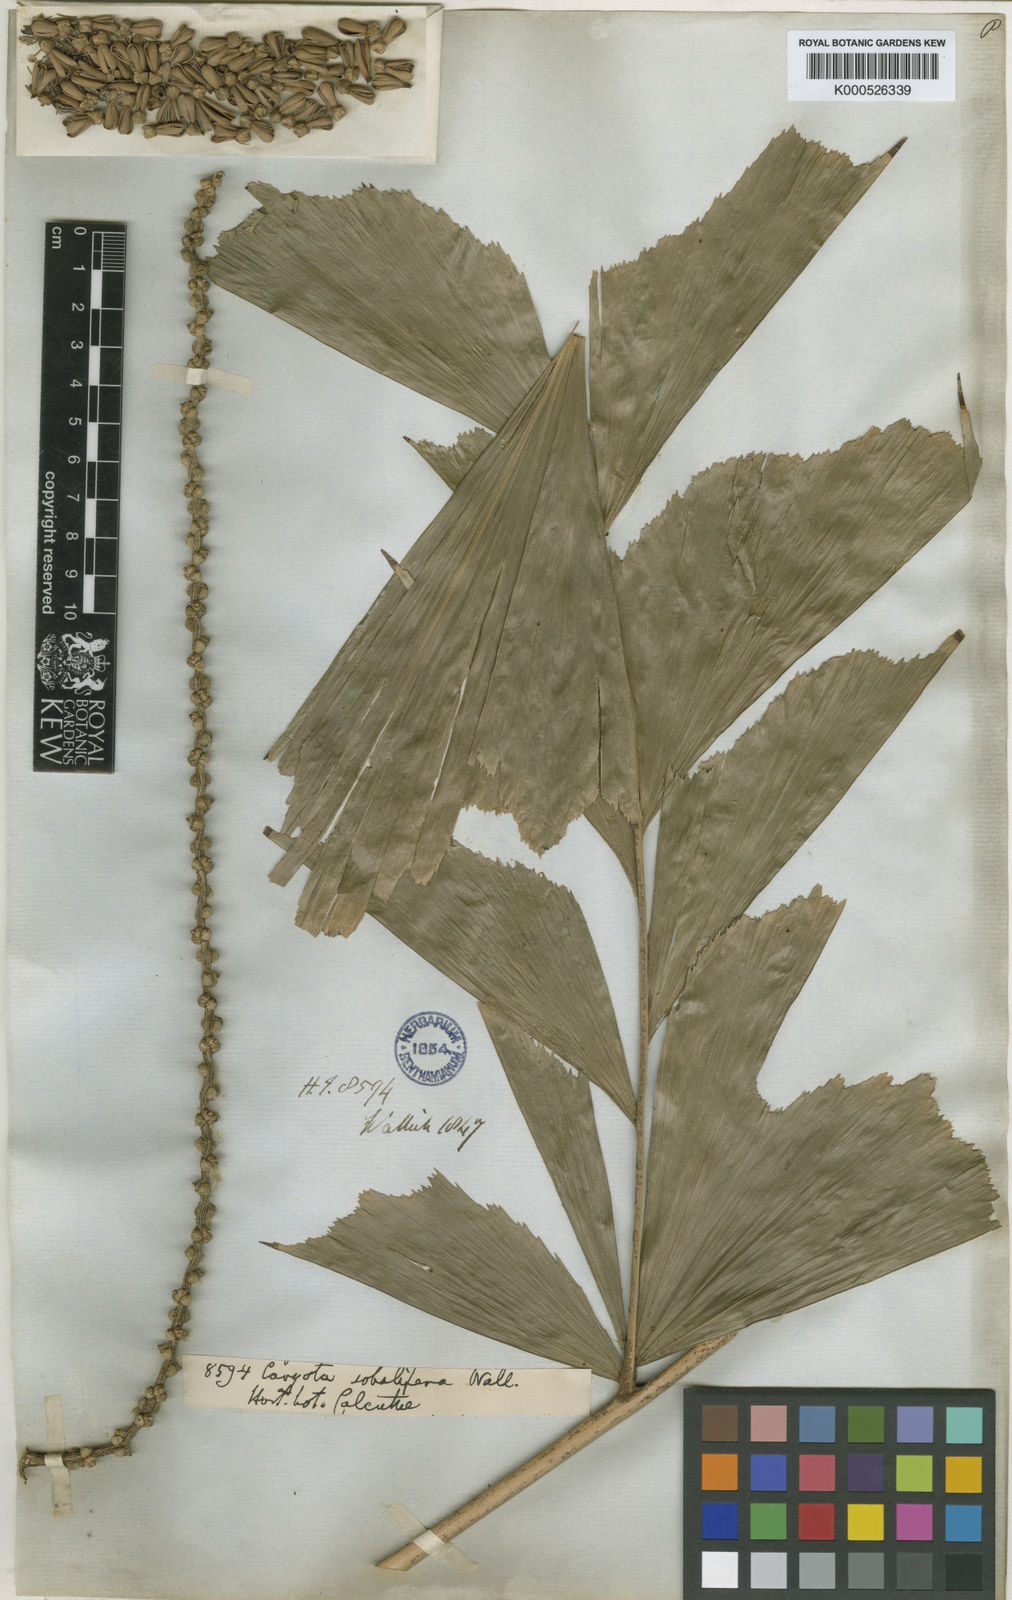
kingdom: Plantae
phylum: Tracheophyta
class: Liliopsida
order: Arecales
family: Arecaceae
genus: Caryota
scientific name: Caryota mitis
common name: Burmese fishtail palm
